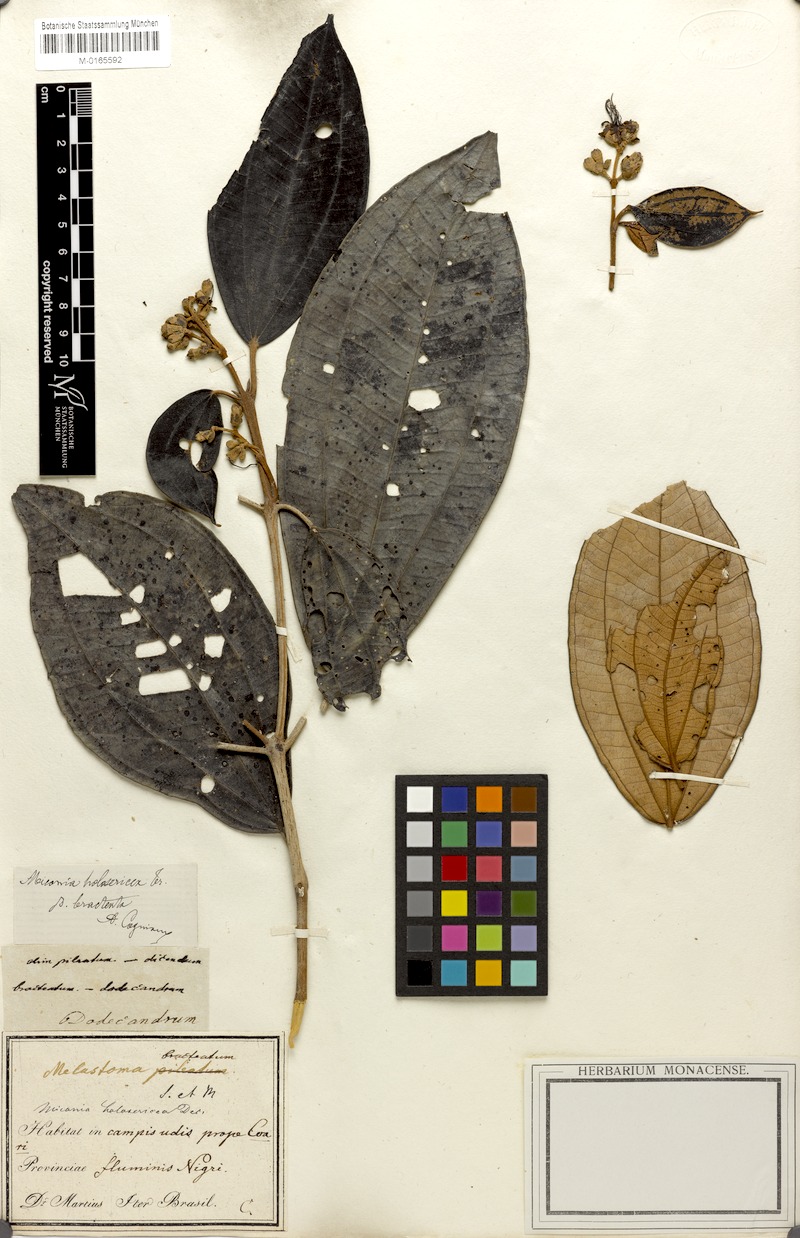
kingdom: Plantae
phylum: Tracheophyta
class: Magnoliopsida
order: Myrtales
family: Melastomataceae
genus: Miconia
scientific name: Miconia holosericea
